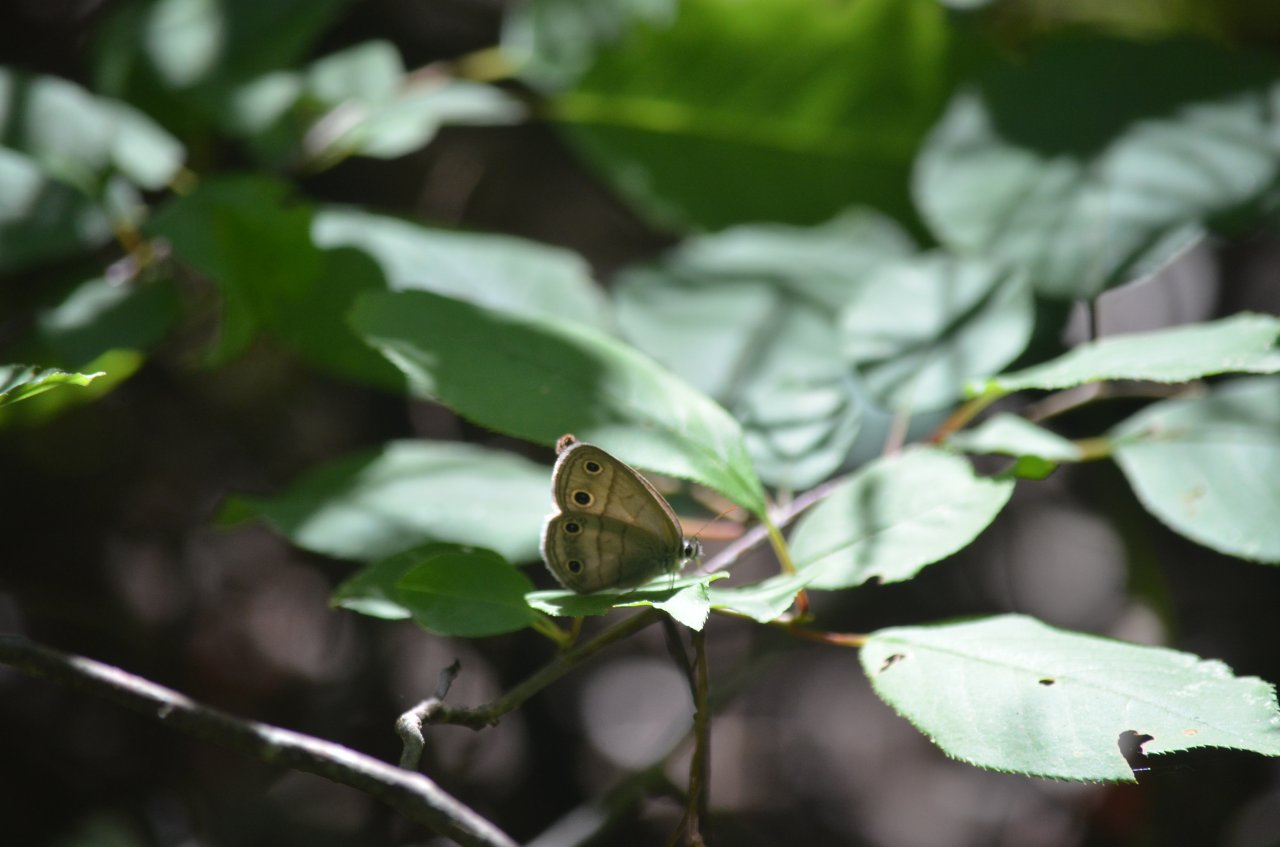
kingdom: Animalia
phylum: Arthropoda
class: Insecta
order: Lepidoptera
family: Nymphalidae
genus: Euptychia
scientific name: Euptychia cymela
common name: Little Wood Satyr
